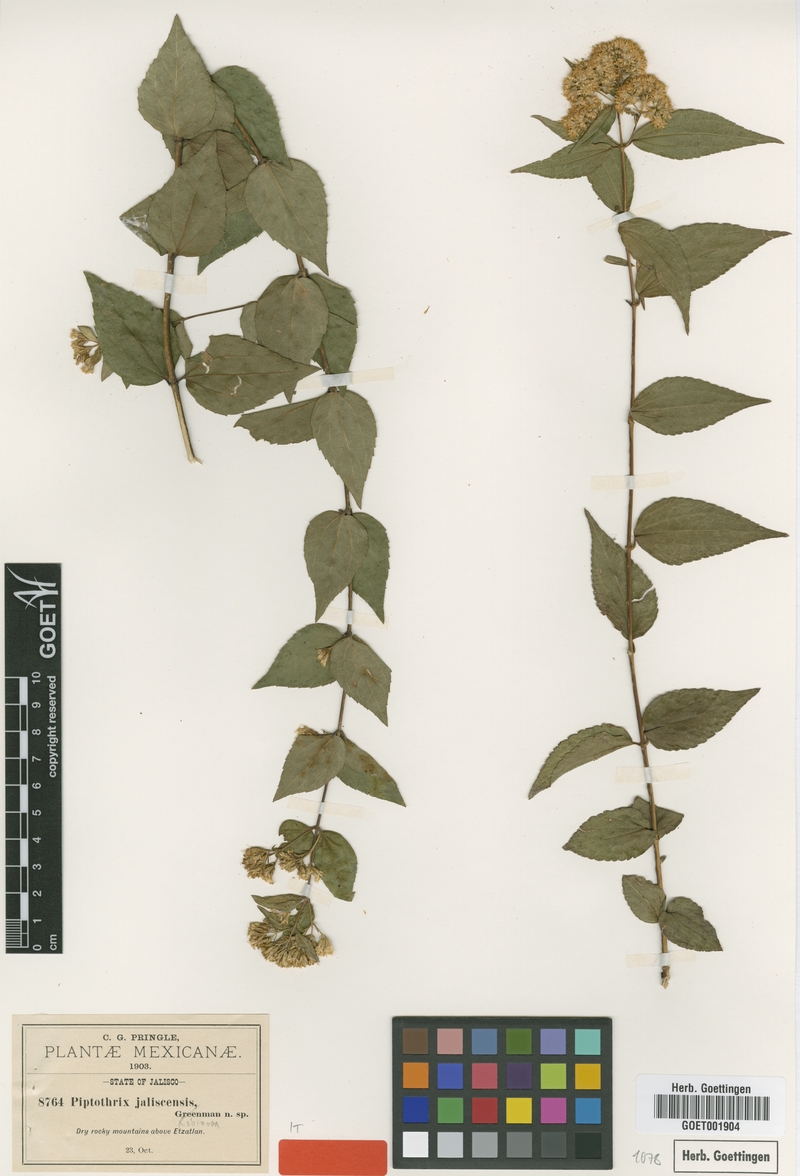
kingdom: Plantae
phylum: Tracheophyta
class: Magnoliopsida
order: Asterales
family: Asteraceae
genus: Ageratina
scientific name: Ageratina jaliscensis
